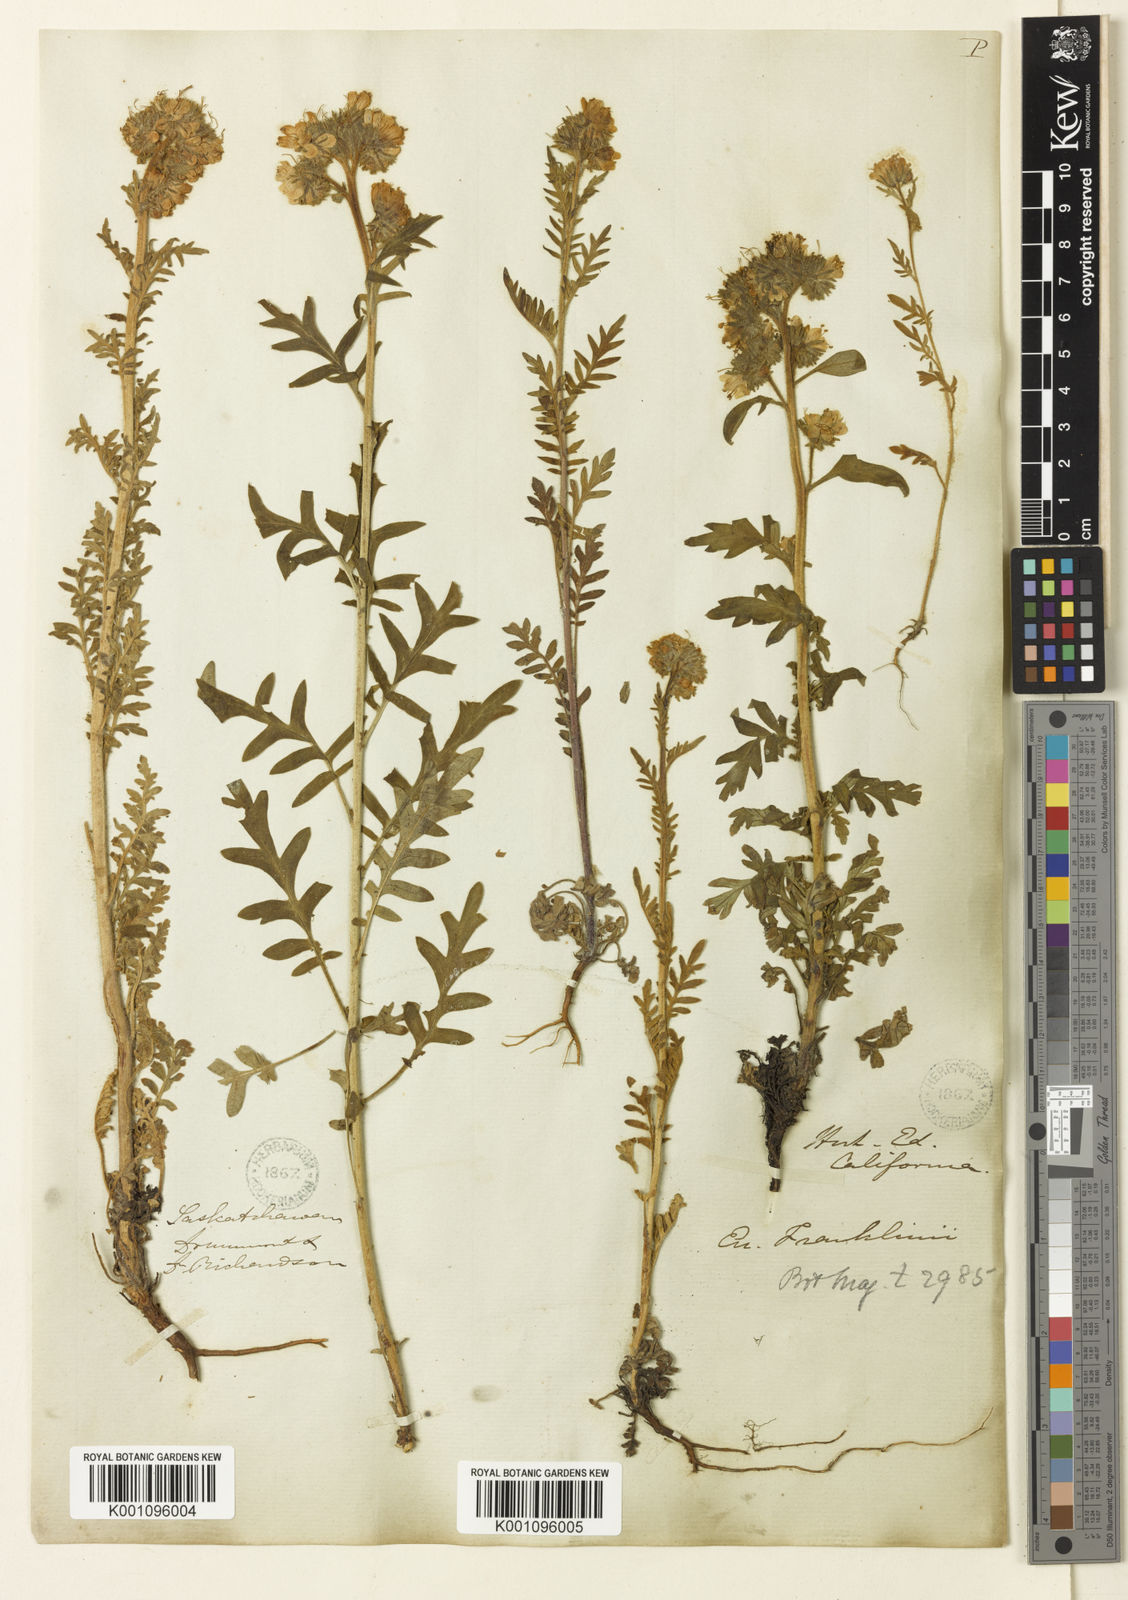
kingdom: Plantae
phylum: Tracheophyta
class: Magnoliopsida
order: Boraginales
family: Hydrophyllaceae
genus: Phacelia
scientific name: Phacelia franklinii
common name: Franklin's phacelia
